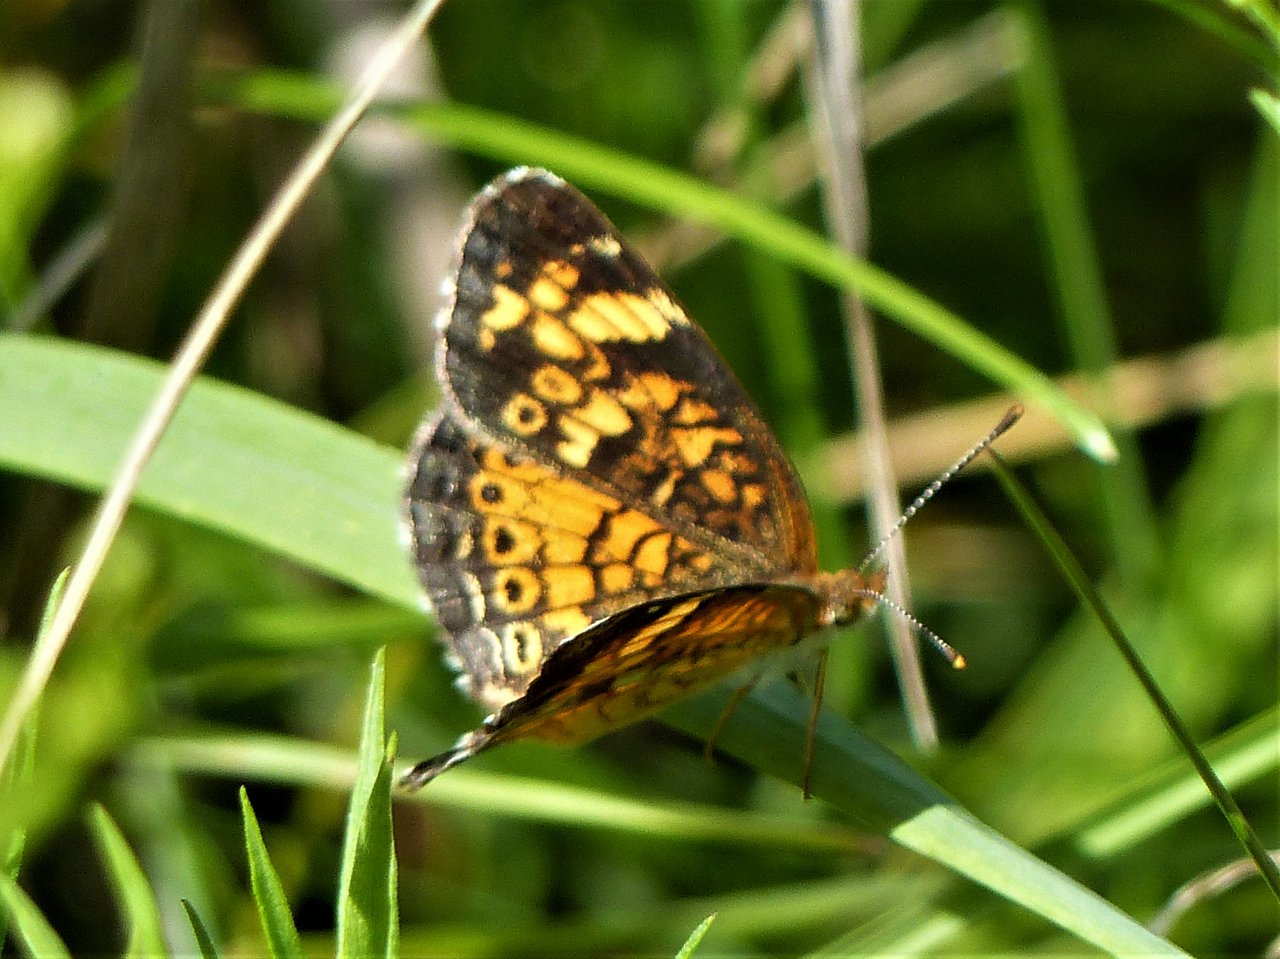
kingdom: Animalia
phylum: Arthropoda
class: Insecta
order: Lepidoptera
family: Nymphalidae
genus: Phyciodes
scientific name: Phyciodes tharos
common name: Northern Crescent
